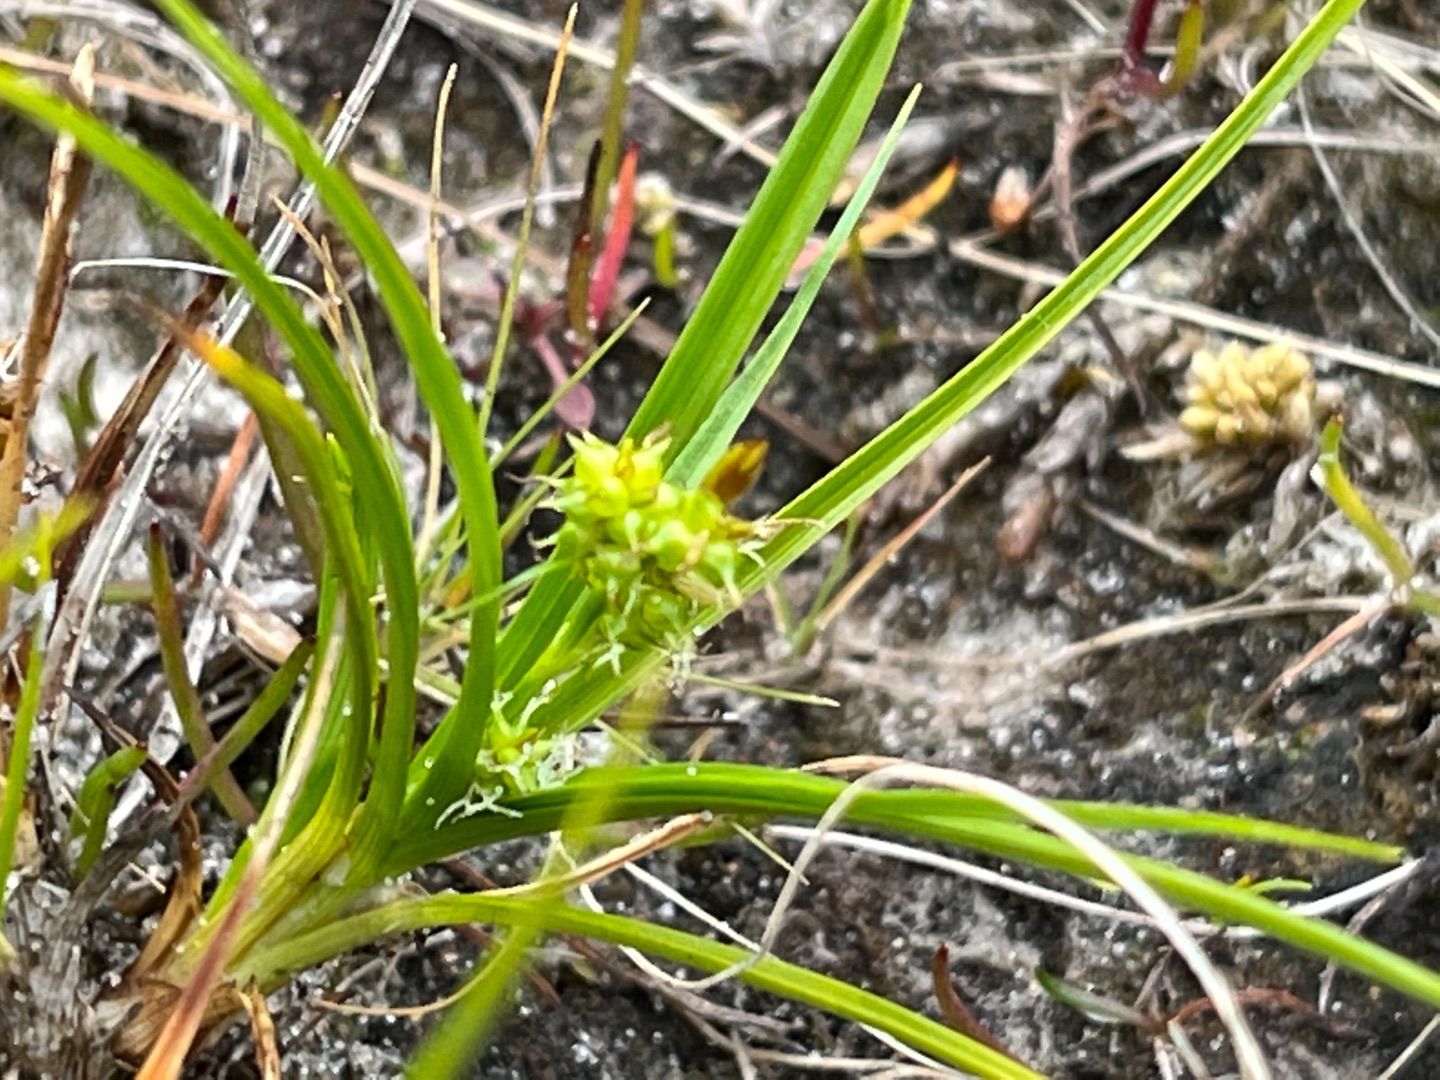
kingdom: Plantae
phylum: Tracheophyta
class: Liliopsida
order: Poales
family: Cyperaceae
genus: Carex
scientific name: Carex oederi
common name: Dværg-star
